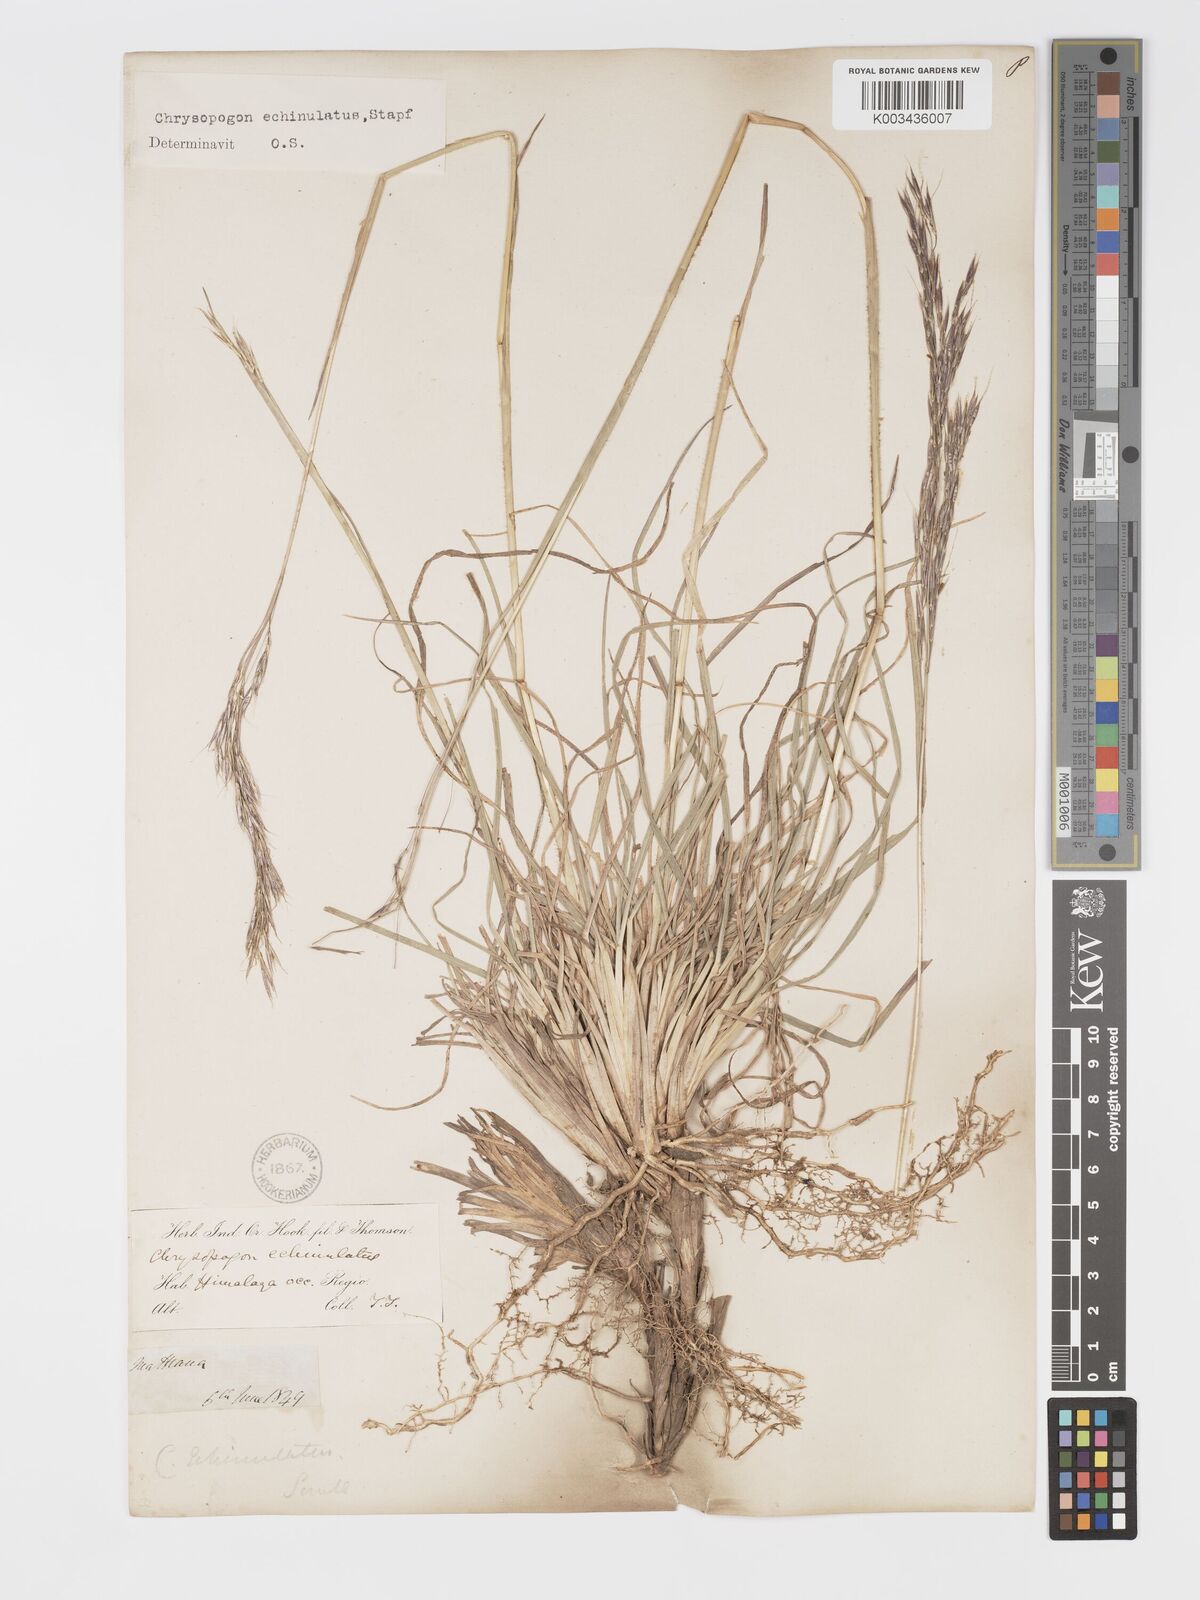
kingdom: Plantae
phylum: Tracheophyta
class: Liliopsida
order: Poales
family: Poaceae
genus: Chrysopogon
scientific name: Chrysopogon gryllus
